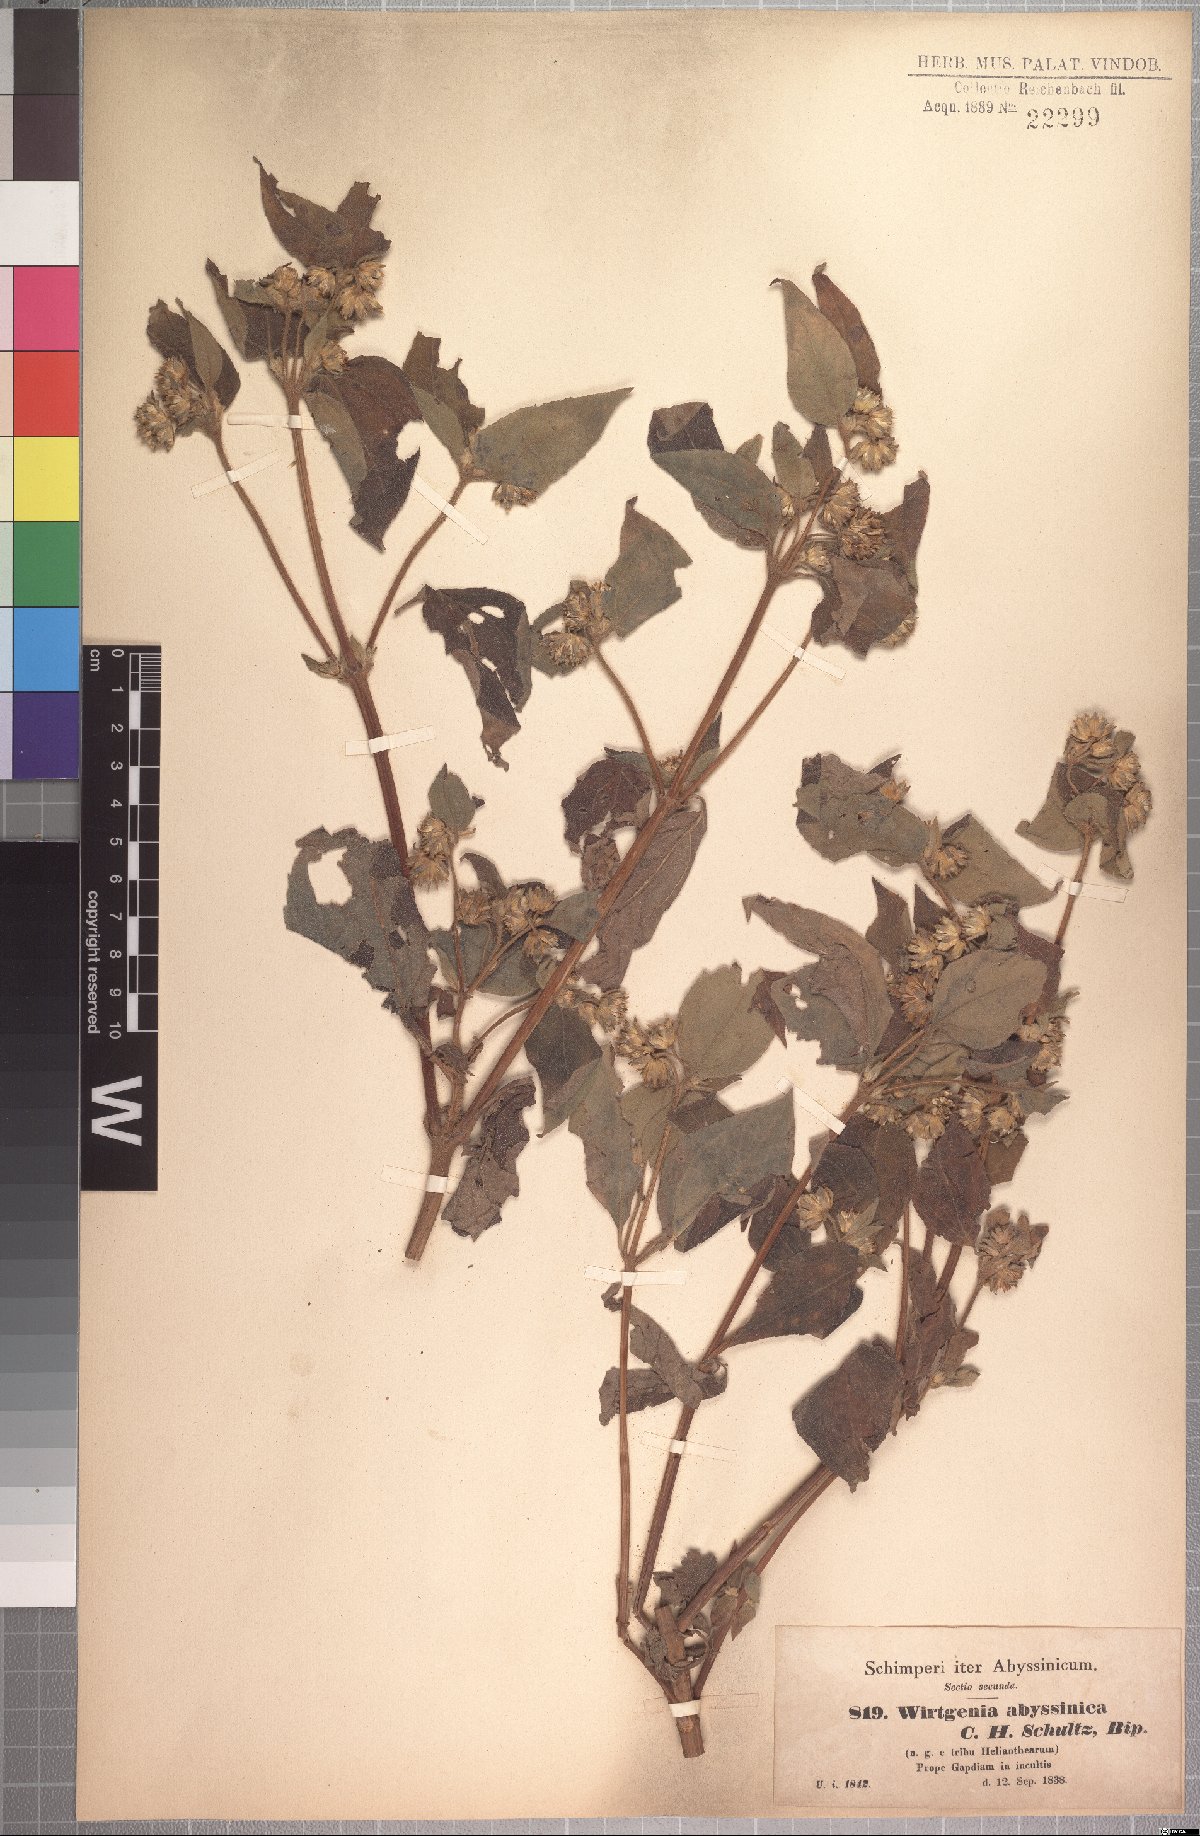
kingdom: Plantae
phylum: Tracheophyta
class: Magnoliopsida
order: Asterales
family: Asteraceae
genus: Aspilia
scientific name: Aspilia ciliata
